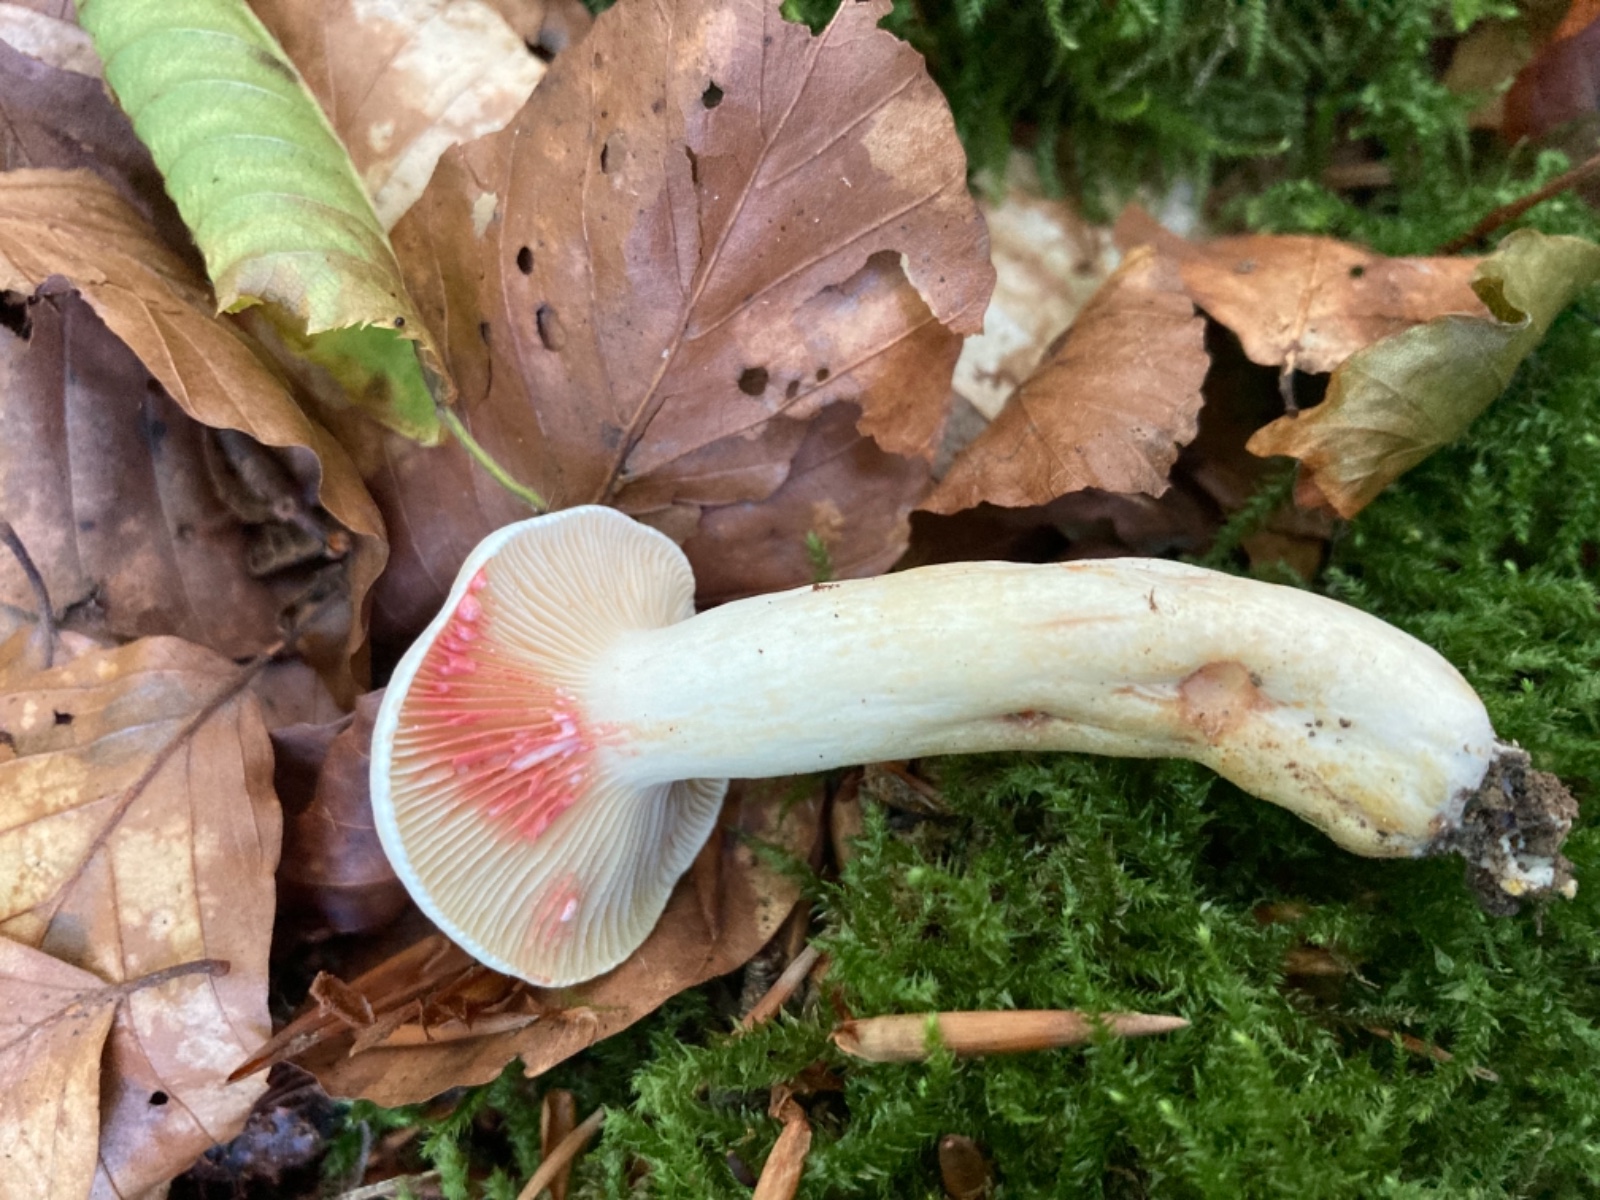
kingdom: Fungi
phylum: Basidiomycota
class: Agaricomycetes
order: Russulales
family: Russulaceae
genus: Lactarius
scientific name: Lactarius acris
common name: rosamælket mælkehat
